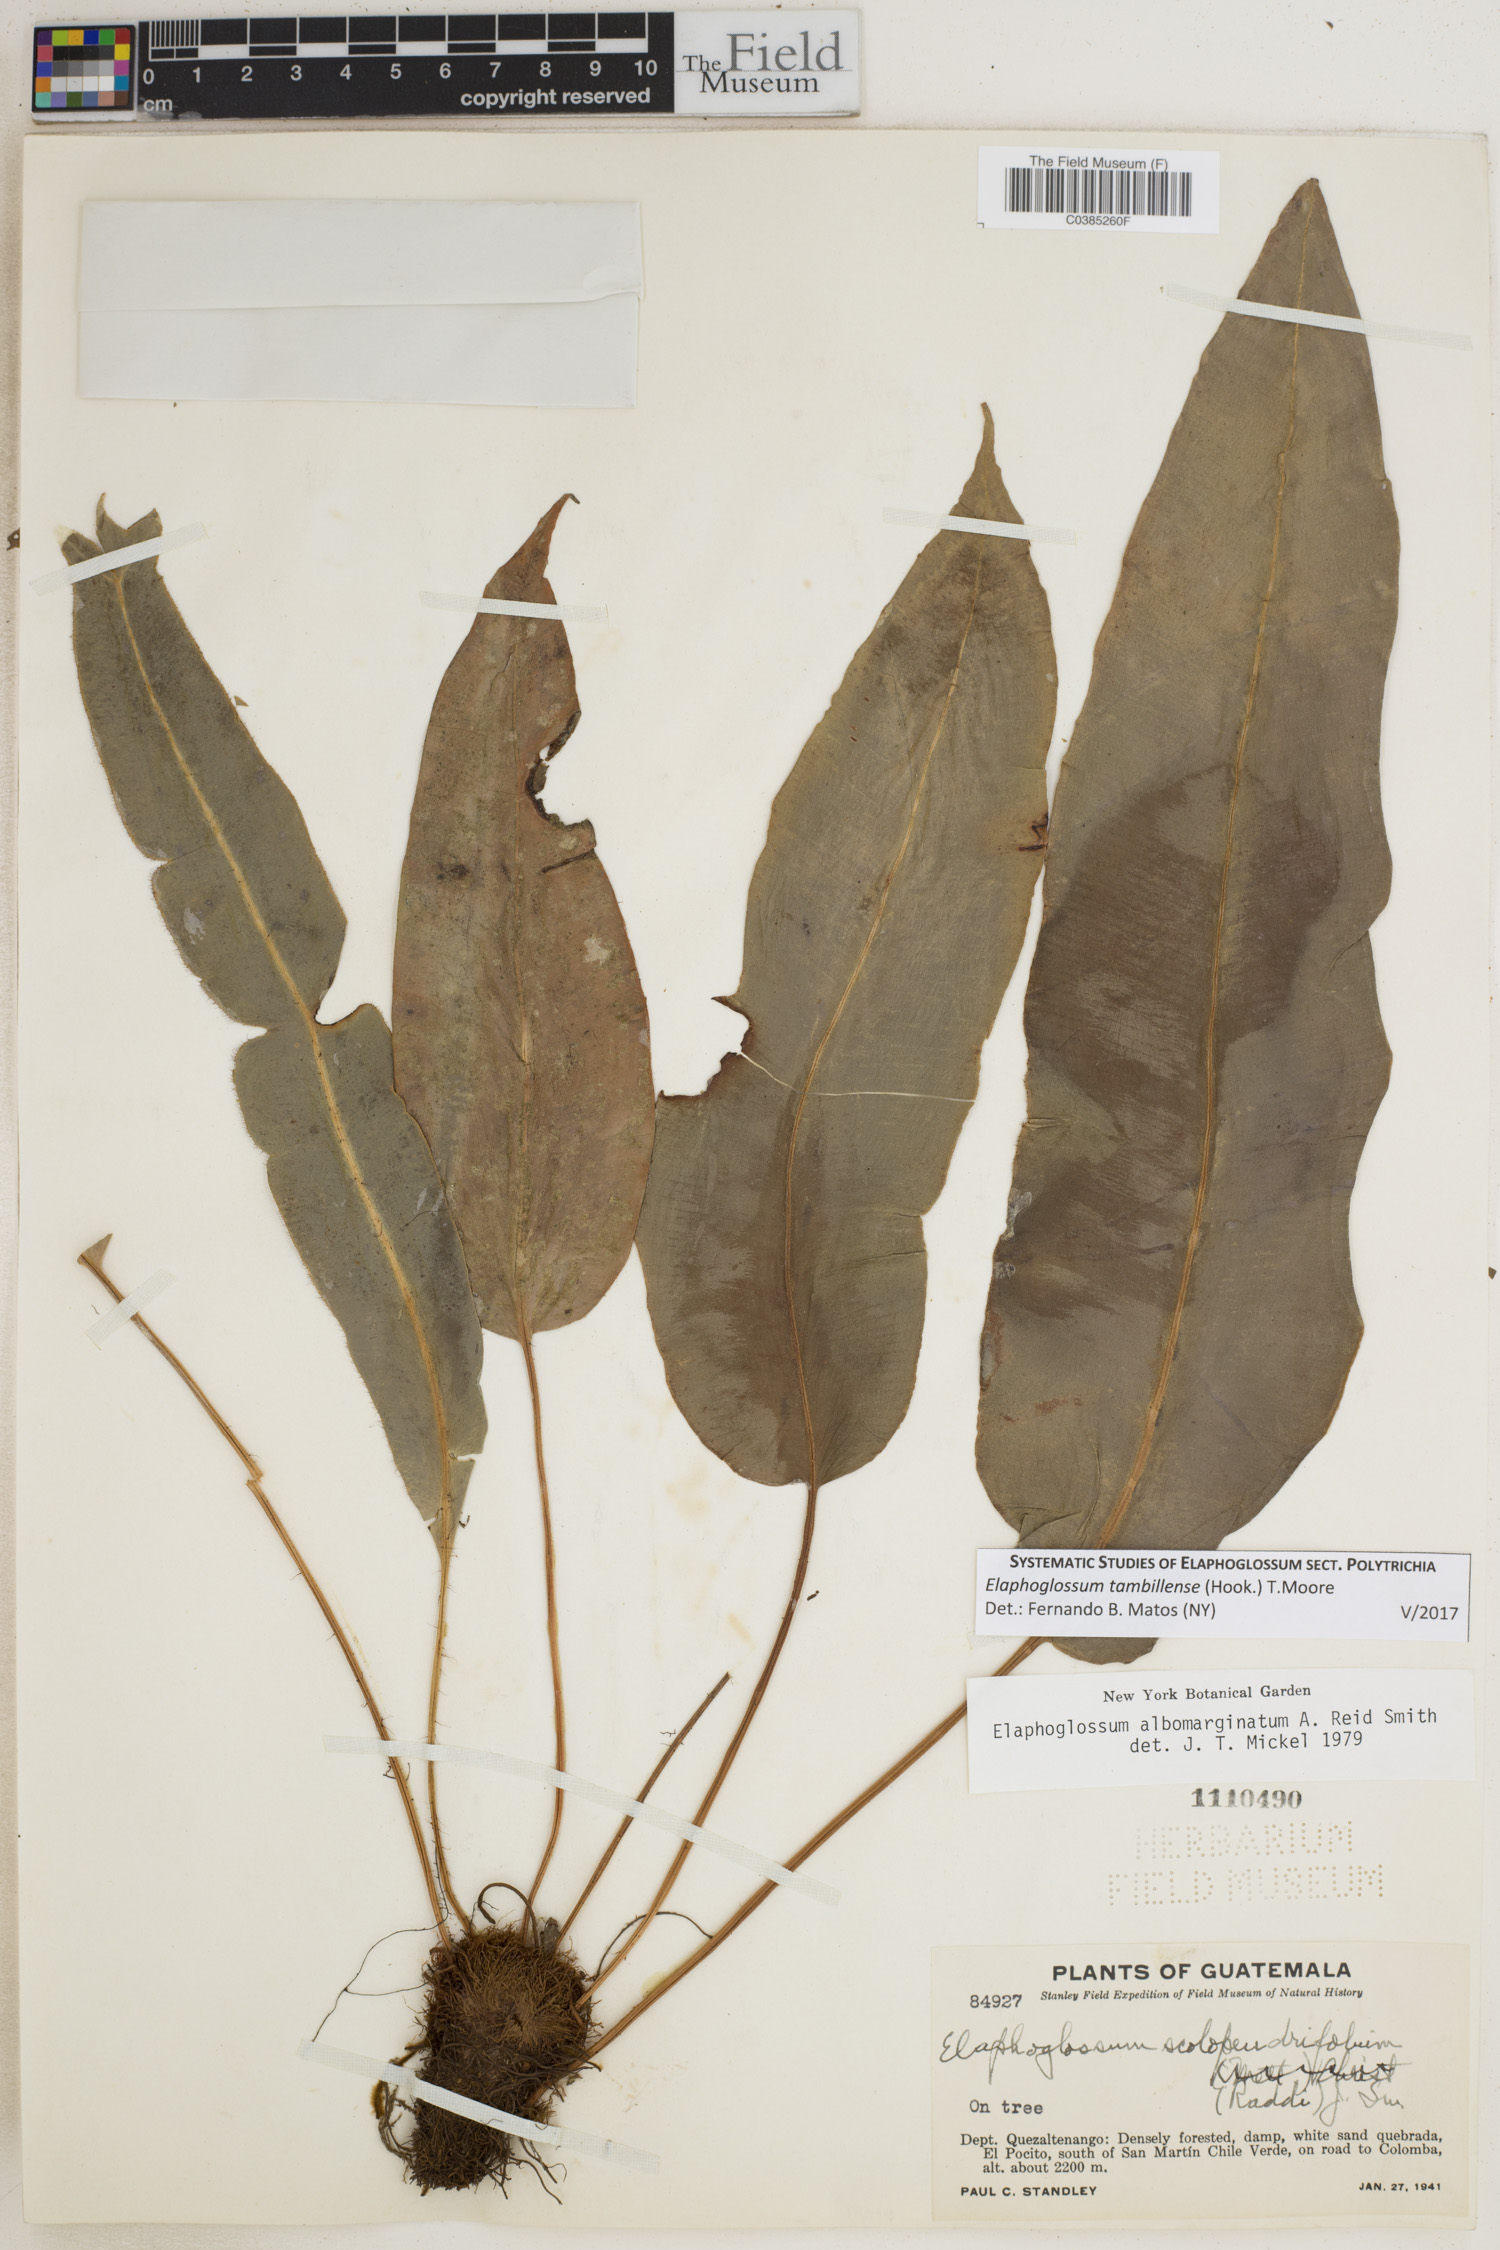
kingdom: Plantae
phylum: Tracheophyta
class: Polypodiopsida
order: Polypodiales
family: Dryopteridaceae
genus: Elaphoglossum
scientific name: Elaphoglossum tambillense
